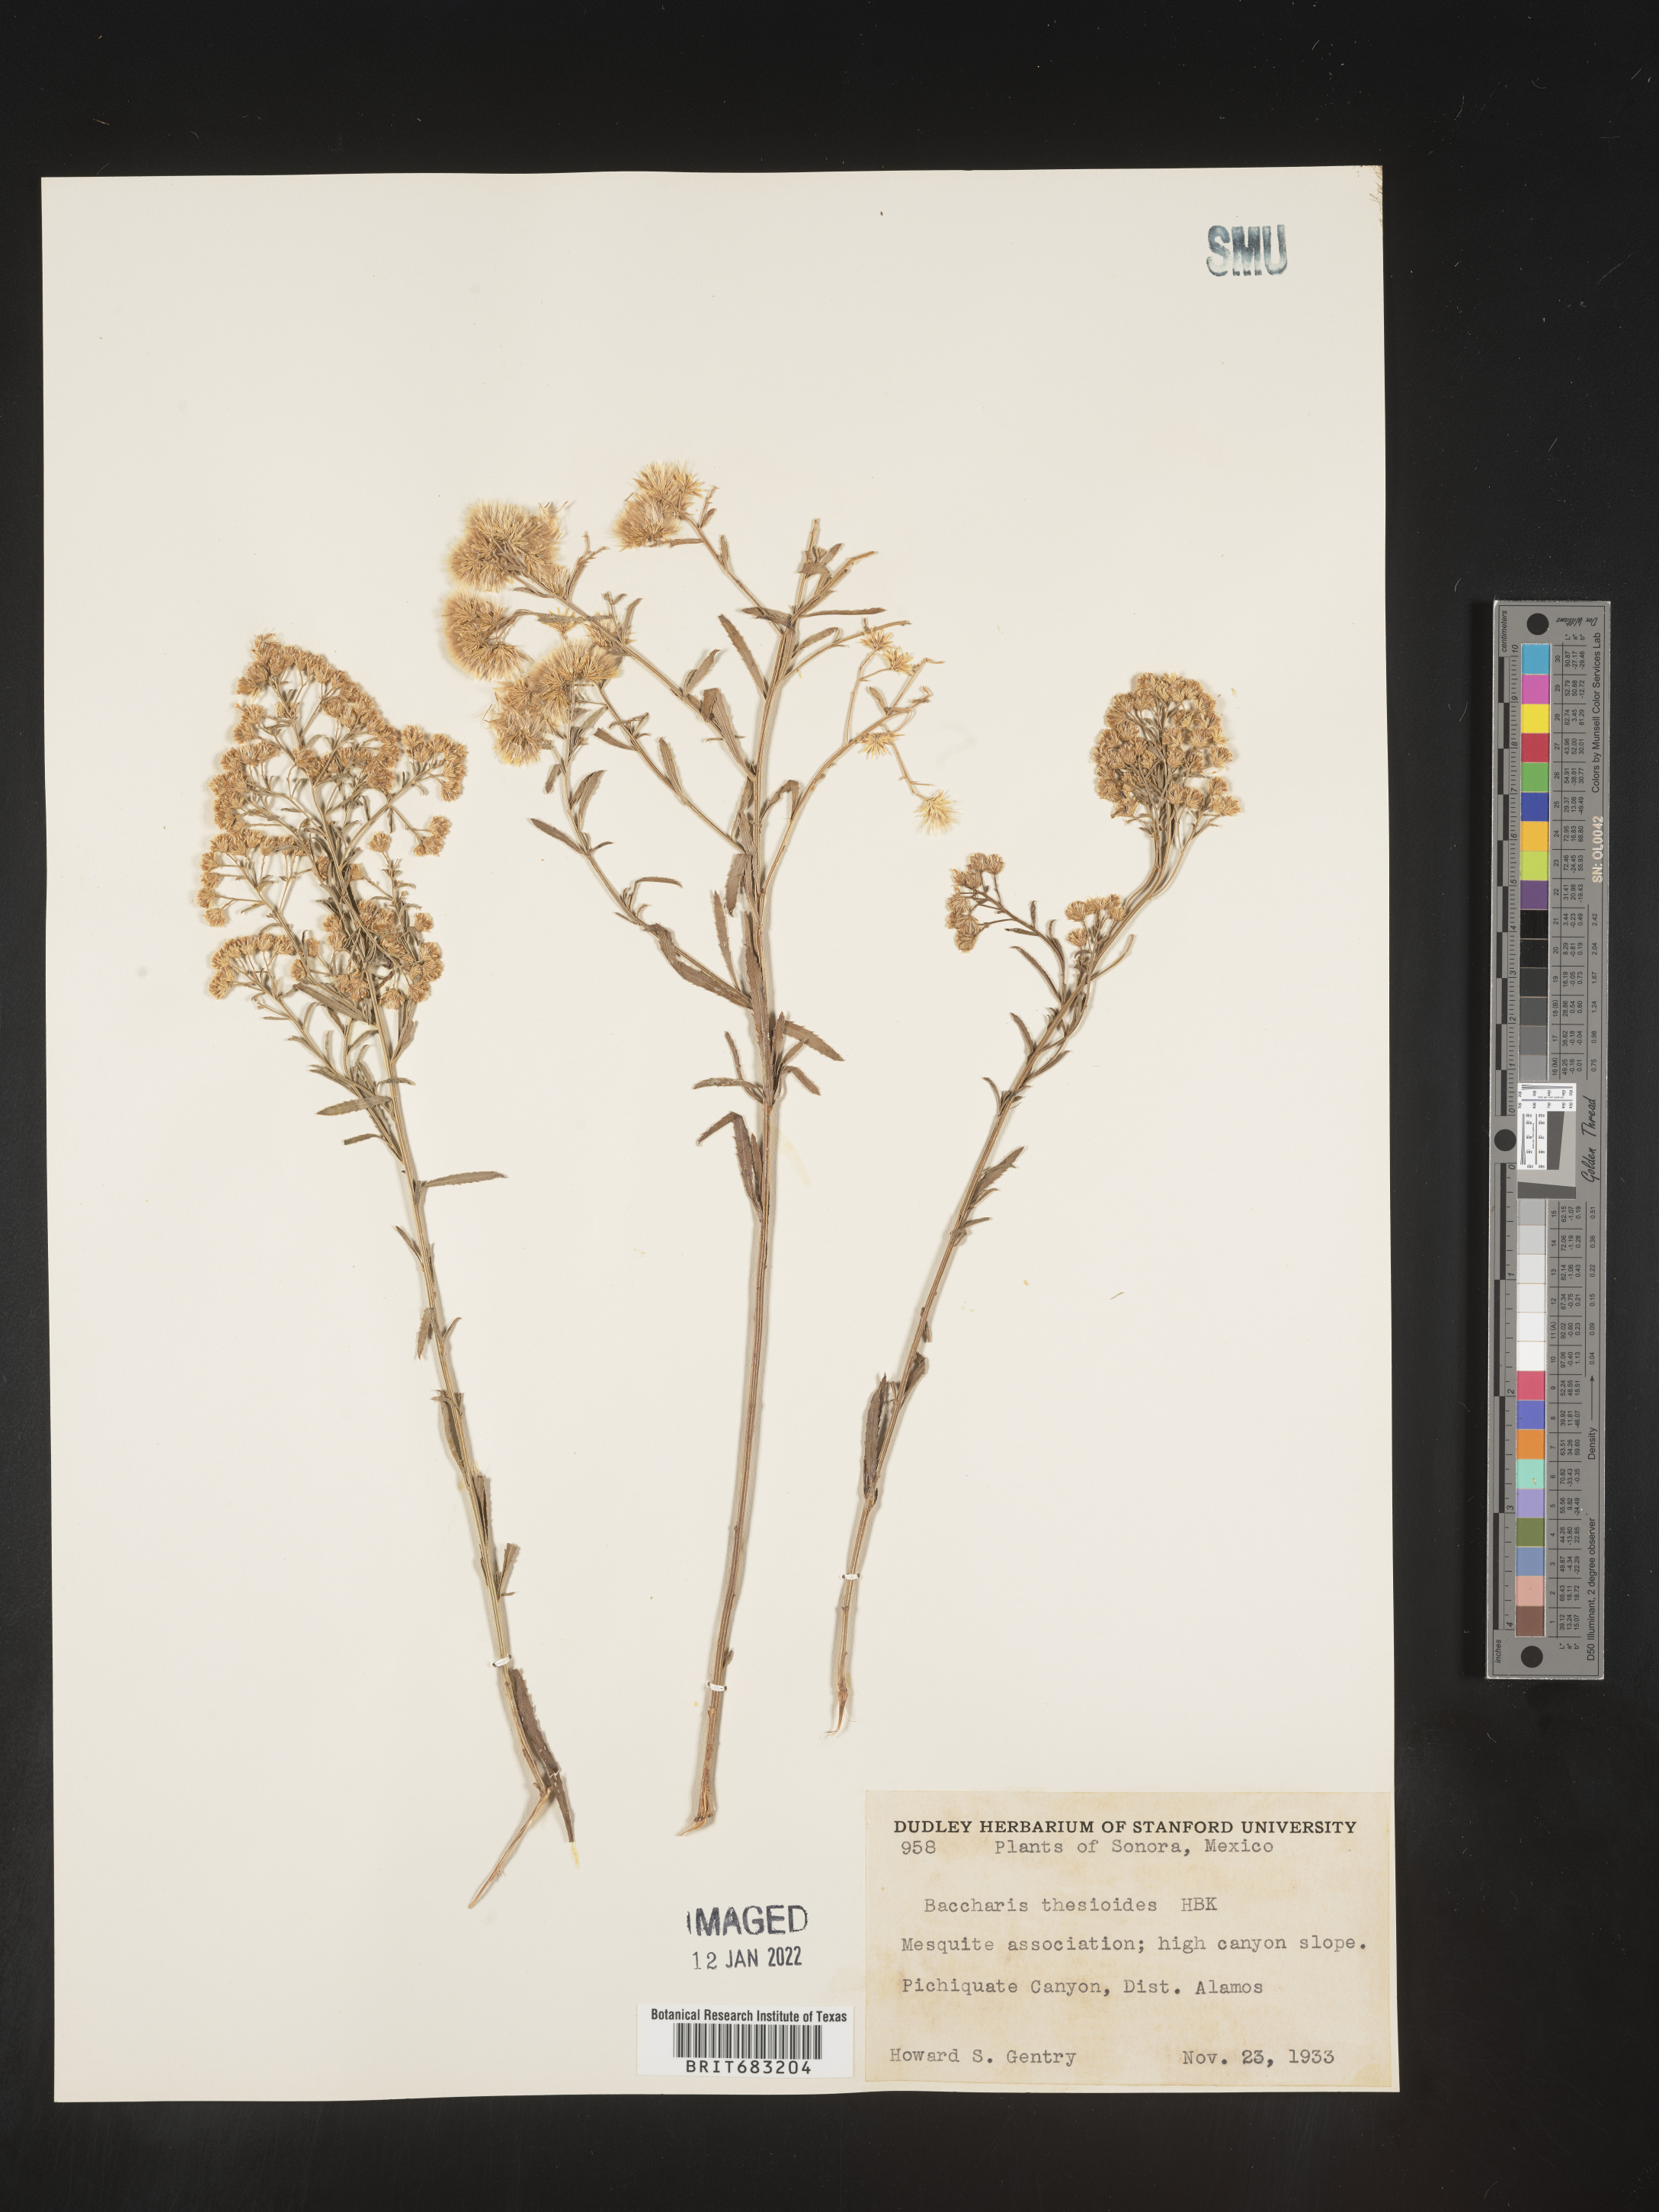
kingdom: Plantae
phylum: Tracheophyta
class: Magnoliopsida
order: Asterales
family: Asteraceae
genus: Baccharis
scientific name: Baccharis thesioides
